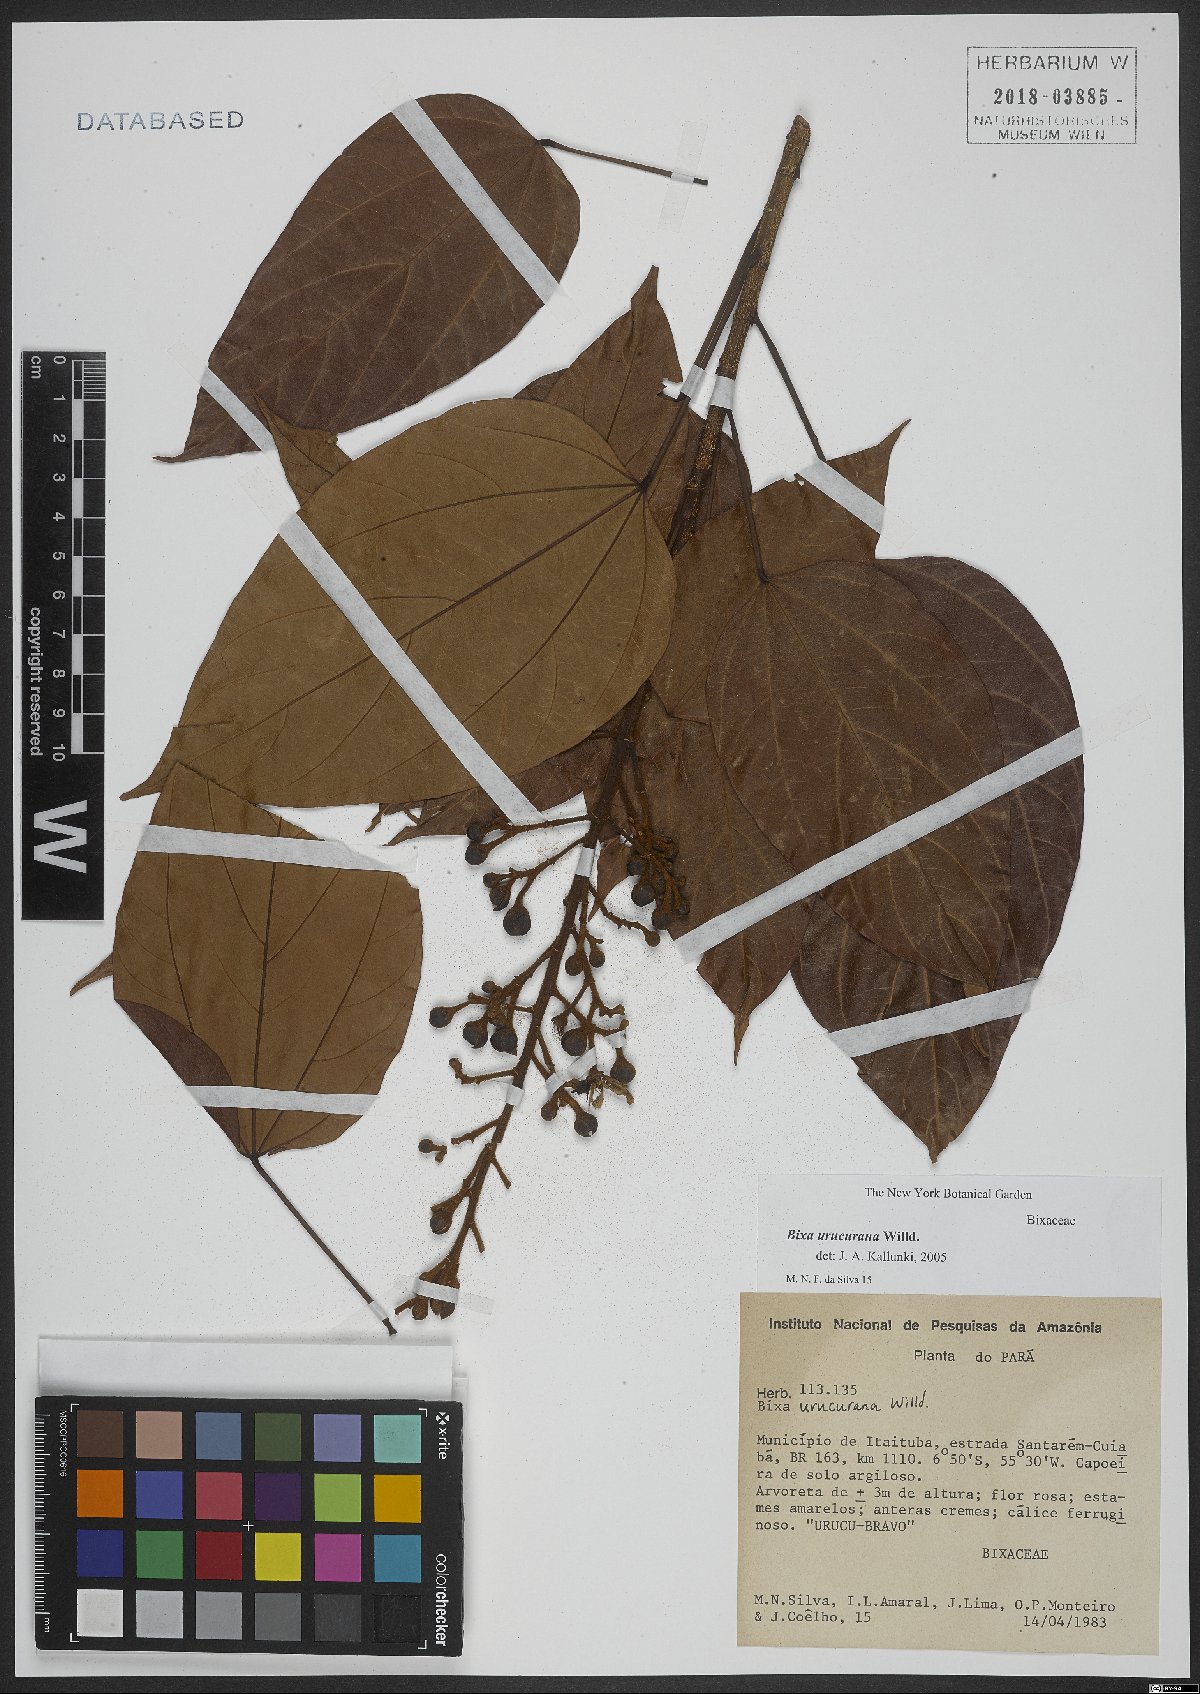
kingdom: Plantae
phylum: Tracheophyta
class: Magnoliopsida
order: Malvales
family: Bixaceae
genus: Bixa
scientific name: Bixa urucurana
